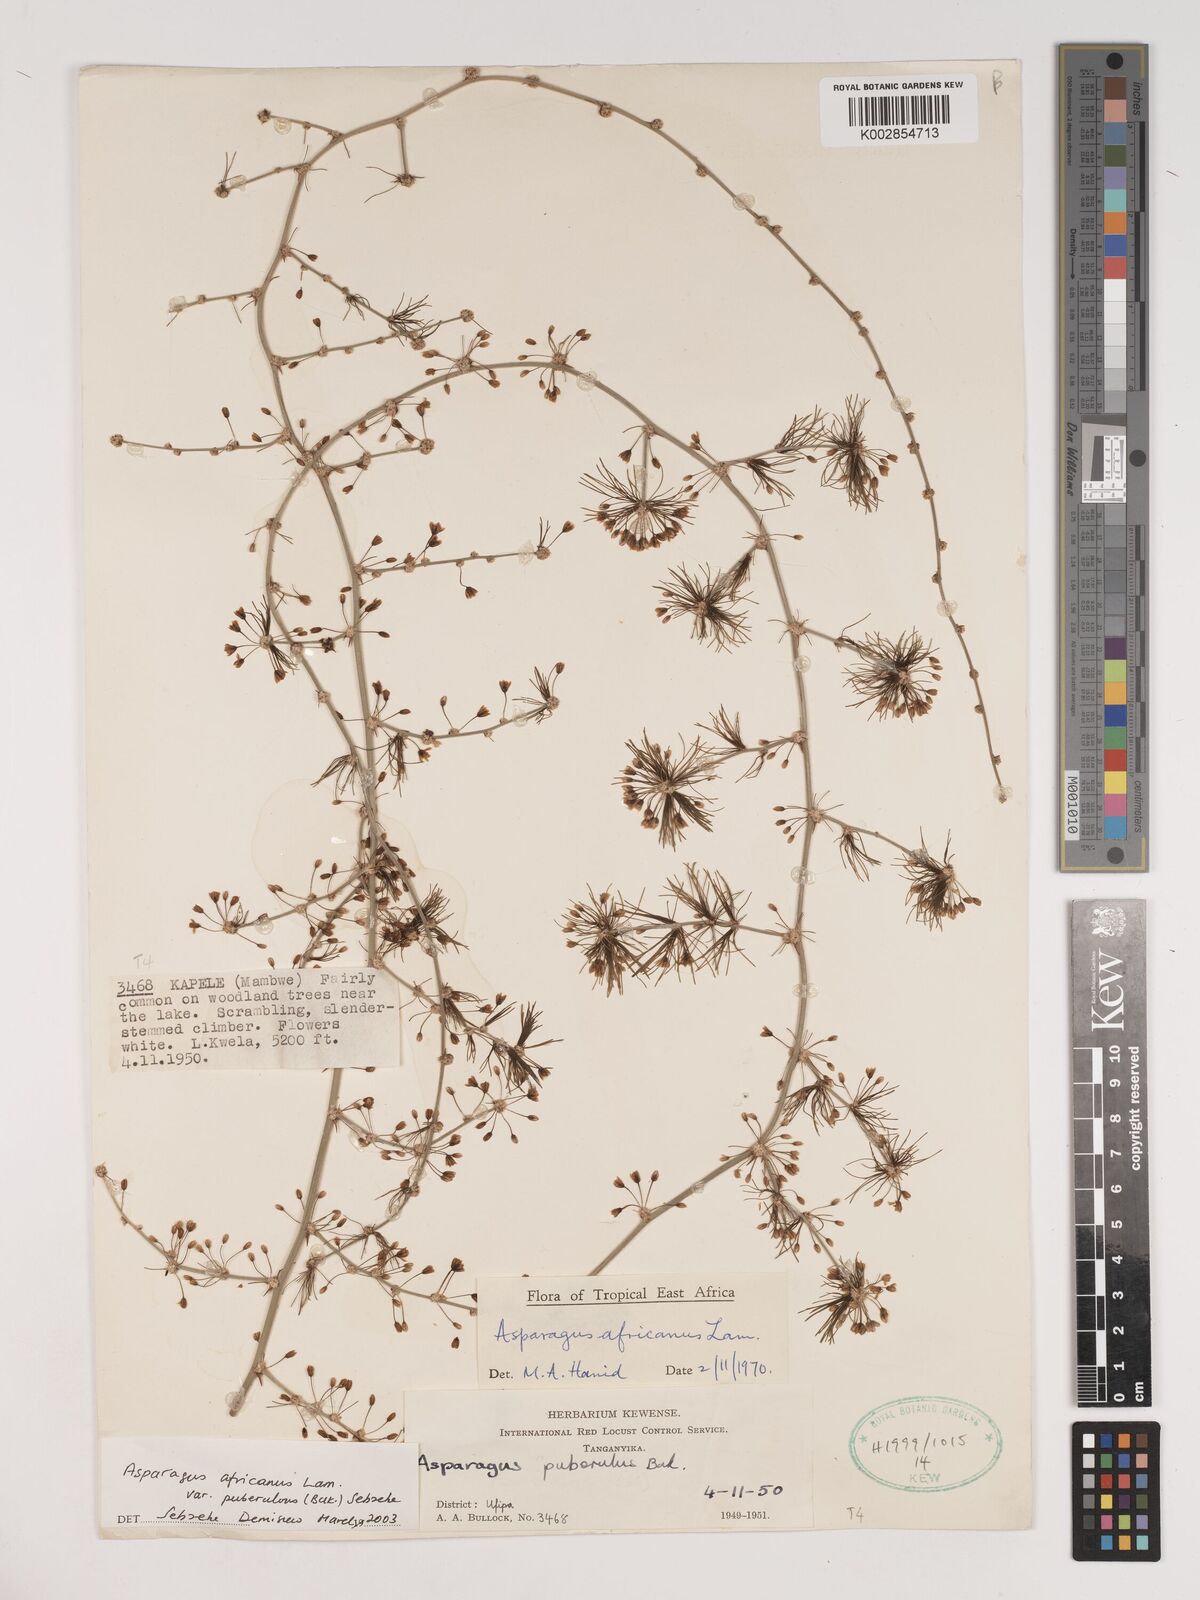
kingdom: Plantae
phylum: Tracheophyta
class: Liliopsida
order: Asparagales
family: Asparagaceae
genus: Asparagus
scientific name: Asparagus africanus
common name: Asparagus-fern
